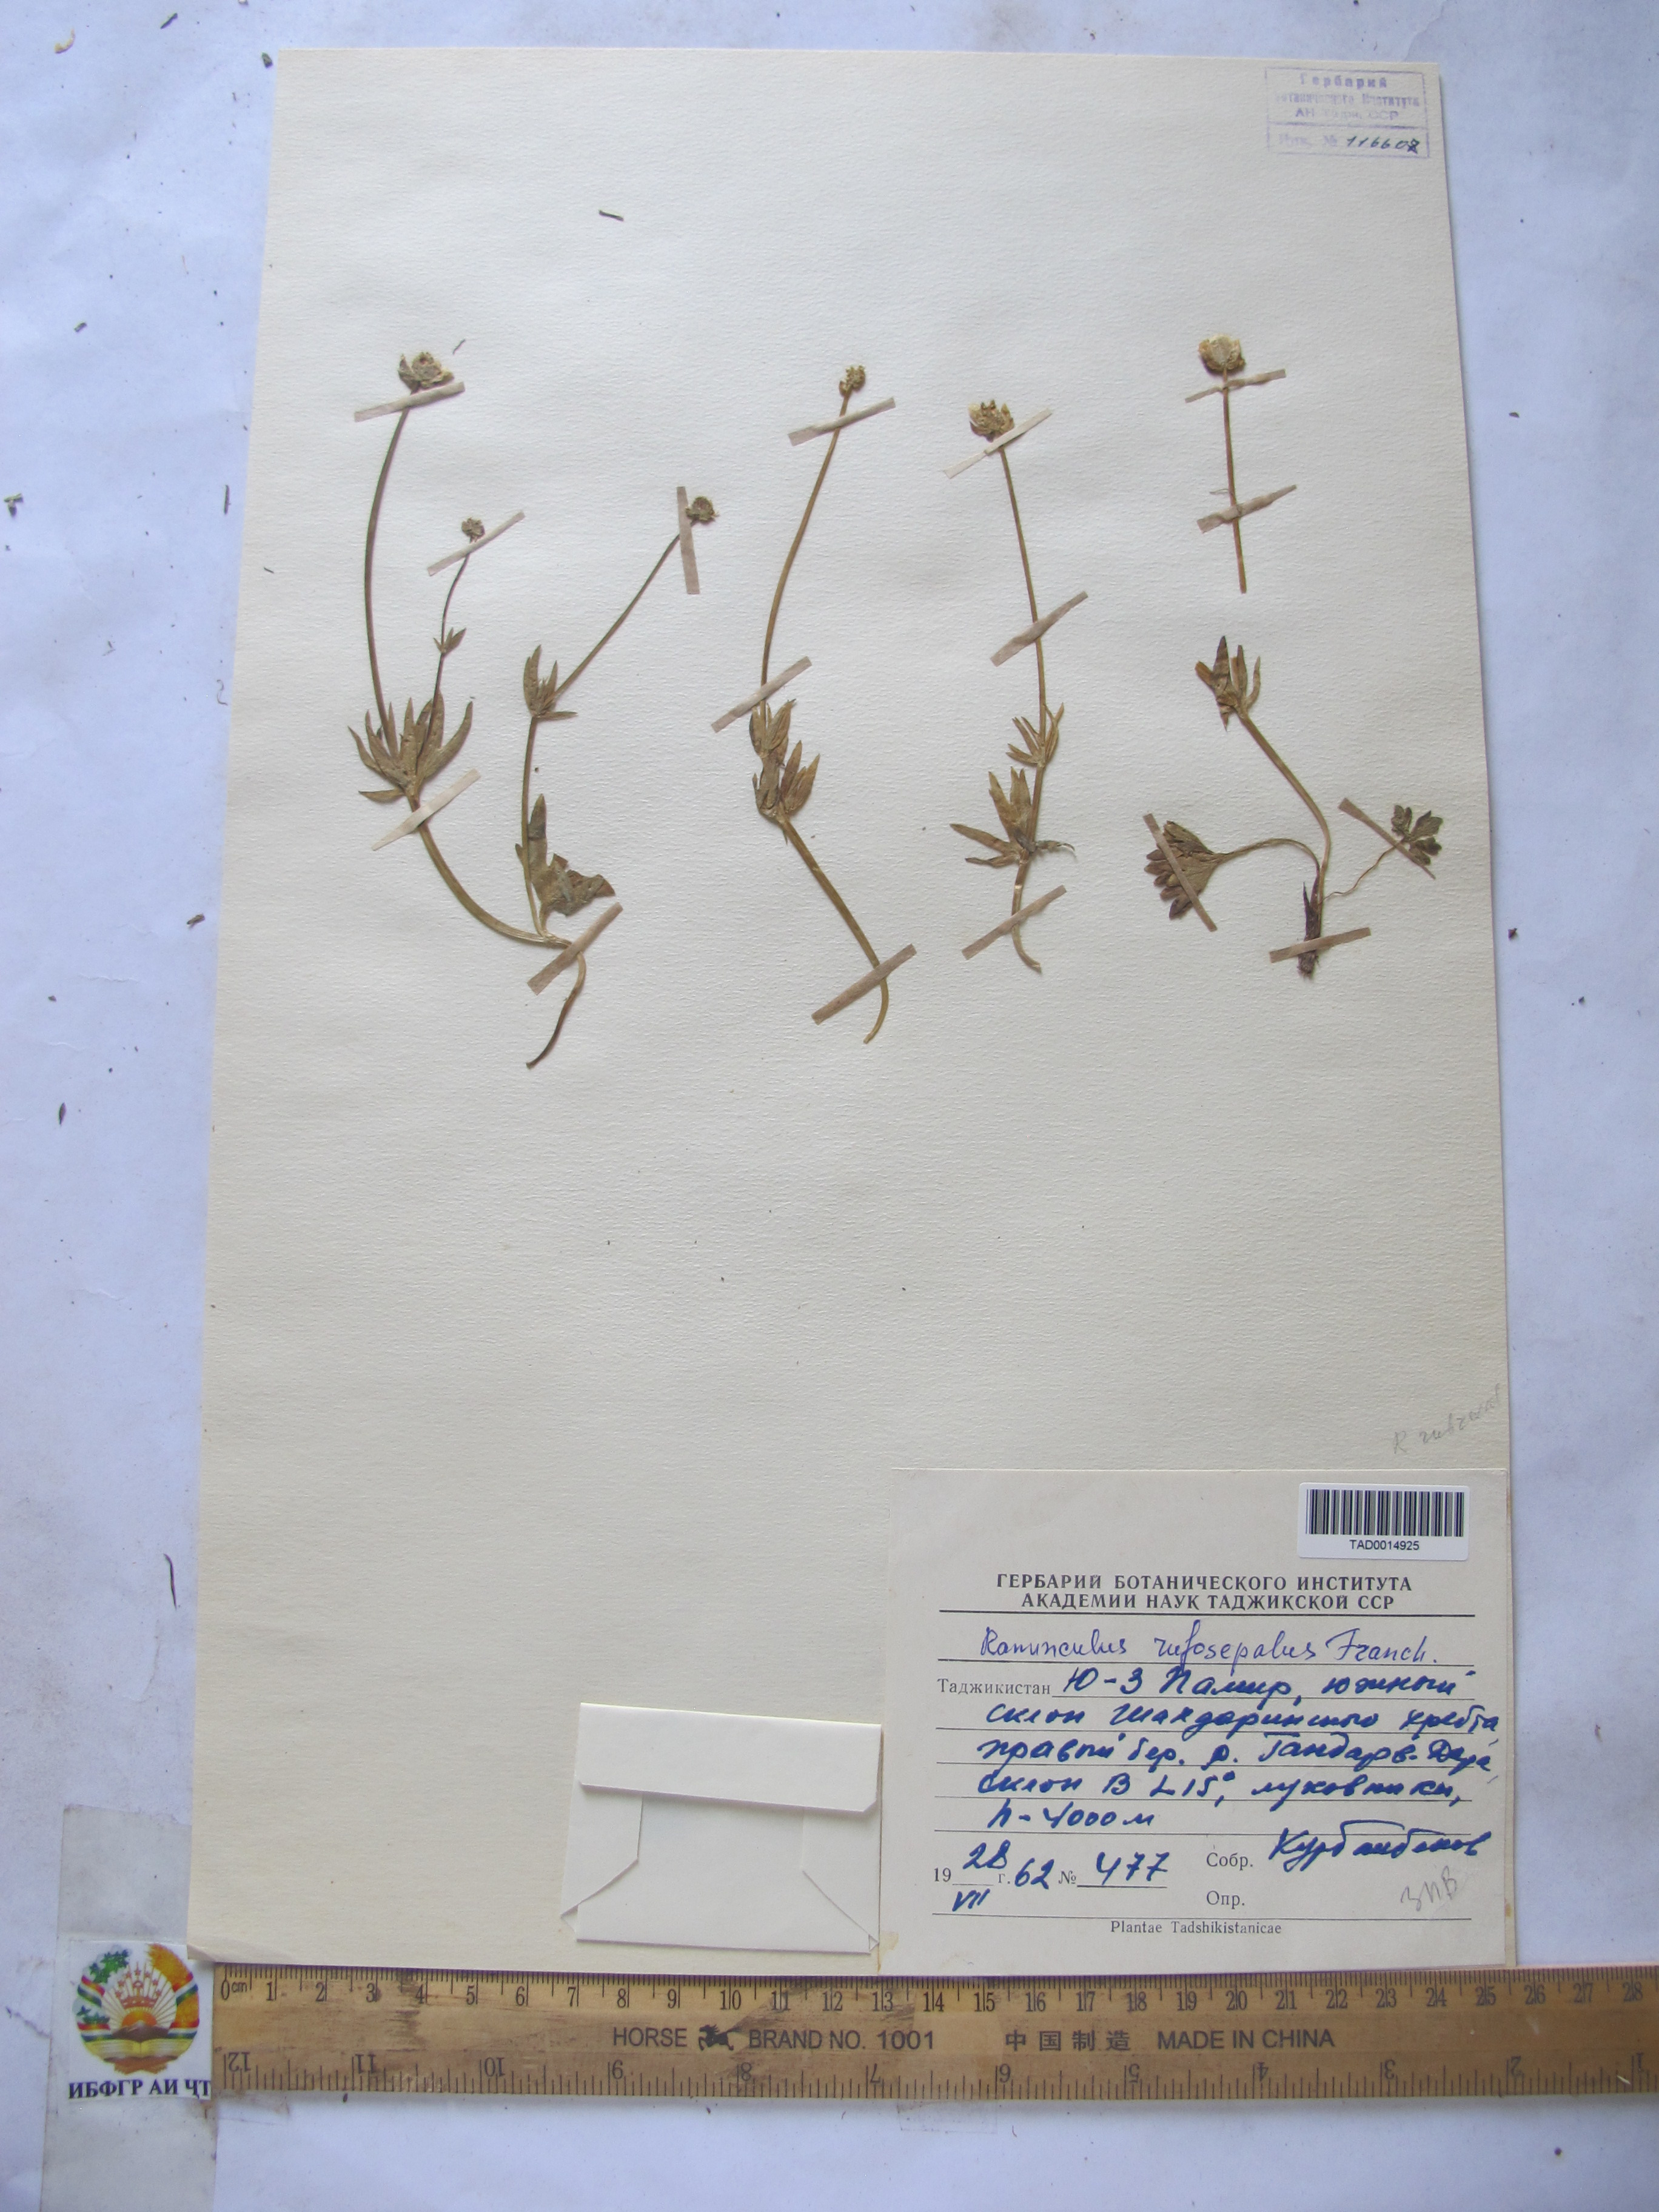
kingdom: Plantae
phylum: Tracheophyta
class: Magnoliopsida
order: Ranunculales
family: Ranunculaceae
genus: Ranunculus
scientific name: Ranunculus rufosepalus
